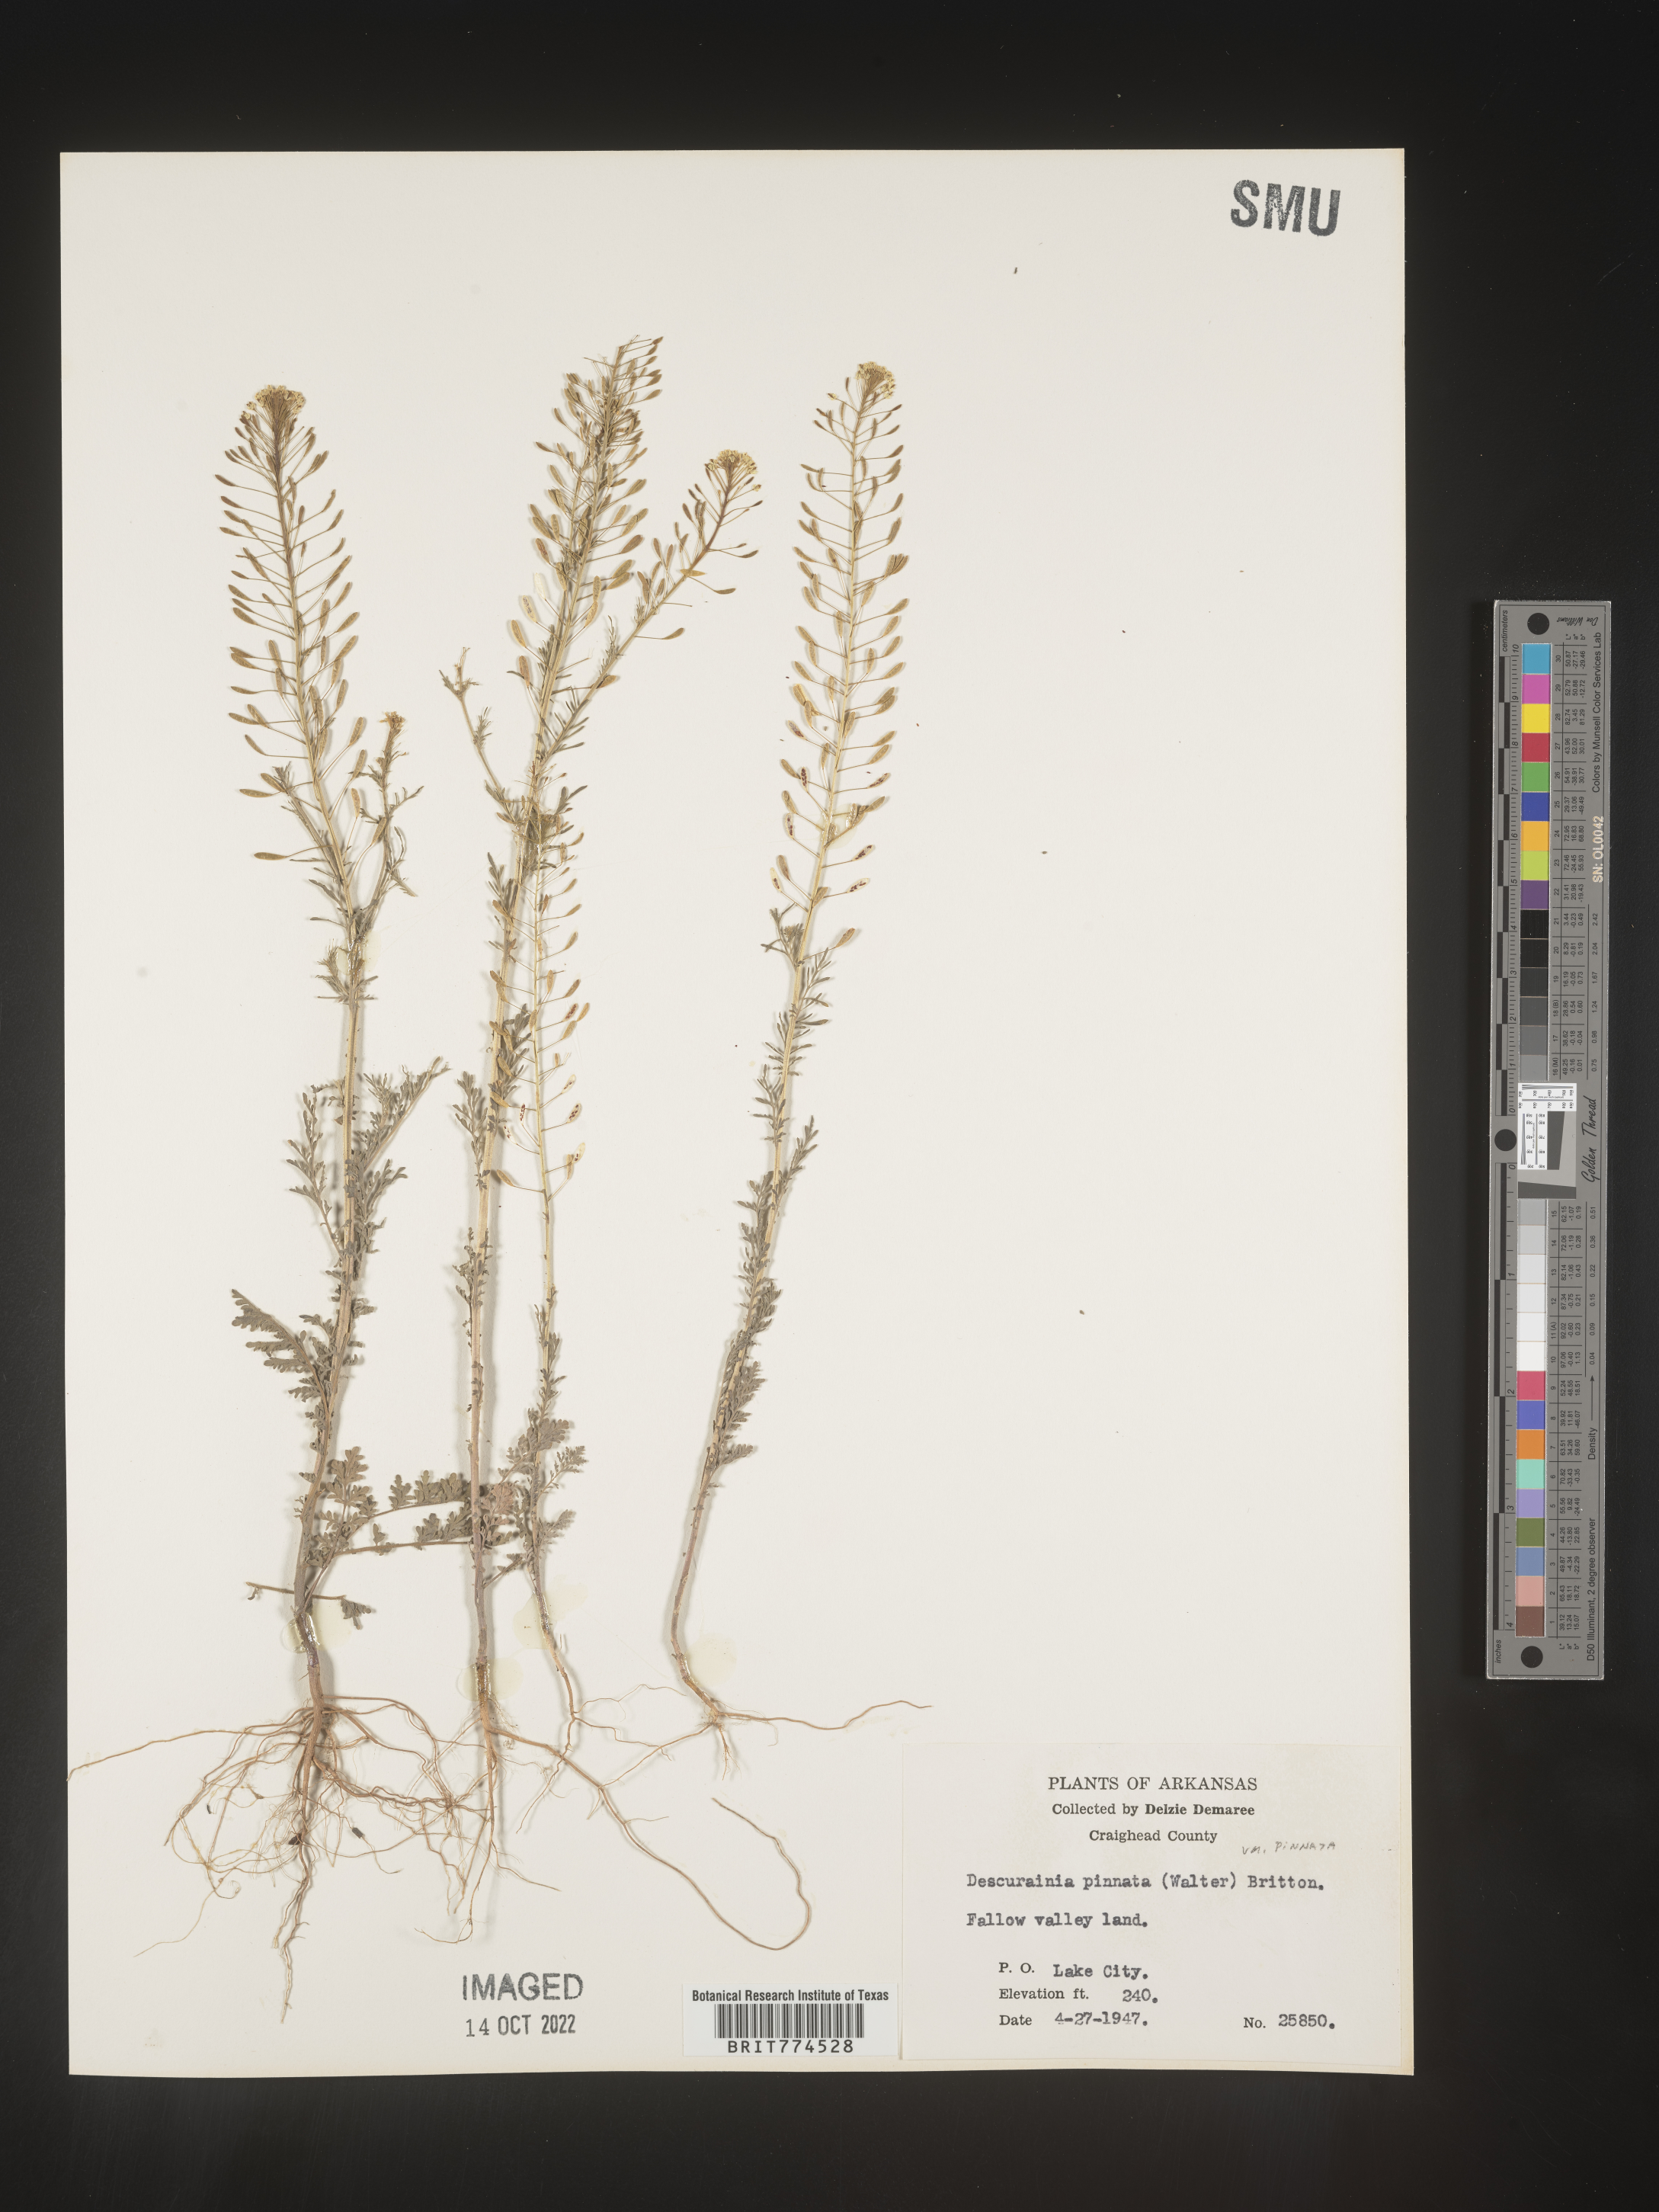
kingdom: Plantae
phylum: Tracheophyta
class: Magnoliopsida
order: Brassicales
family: Brassicaceae
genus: Descurainia
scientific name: Descurainia pinnata
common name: Western tansy mustard
